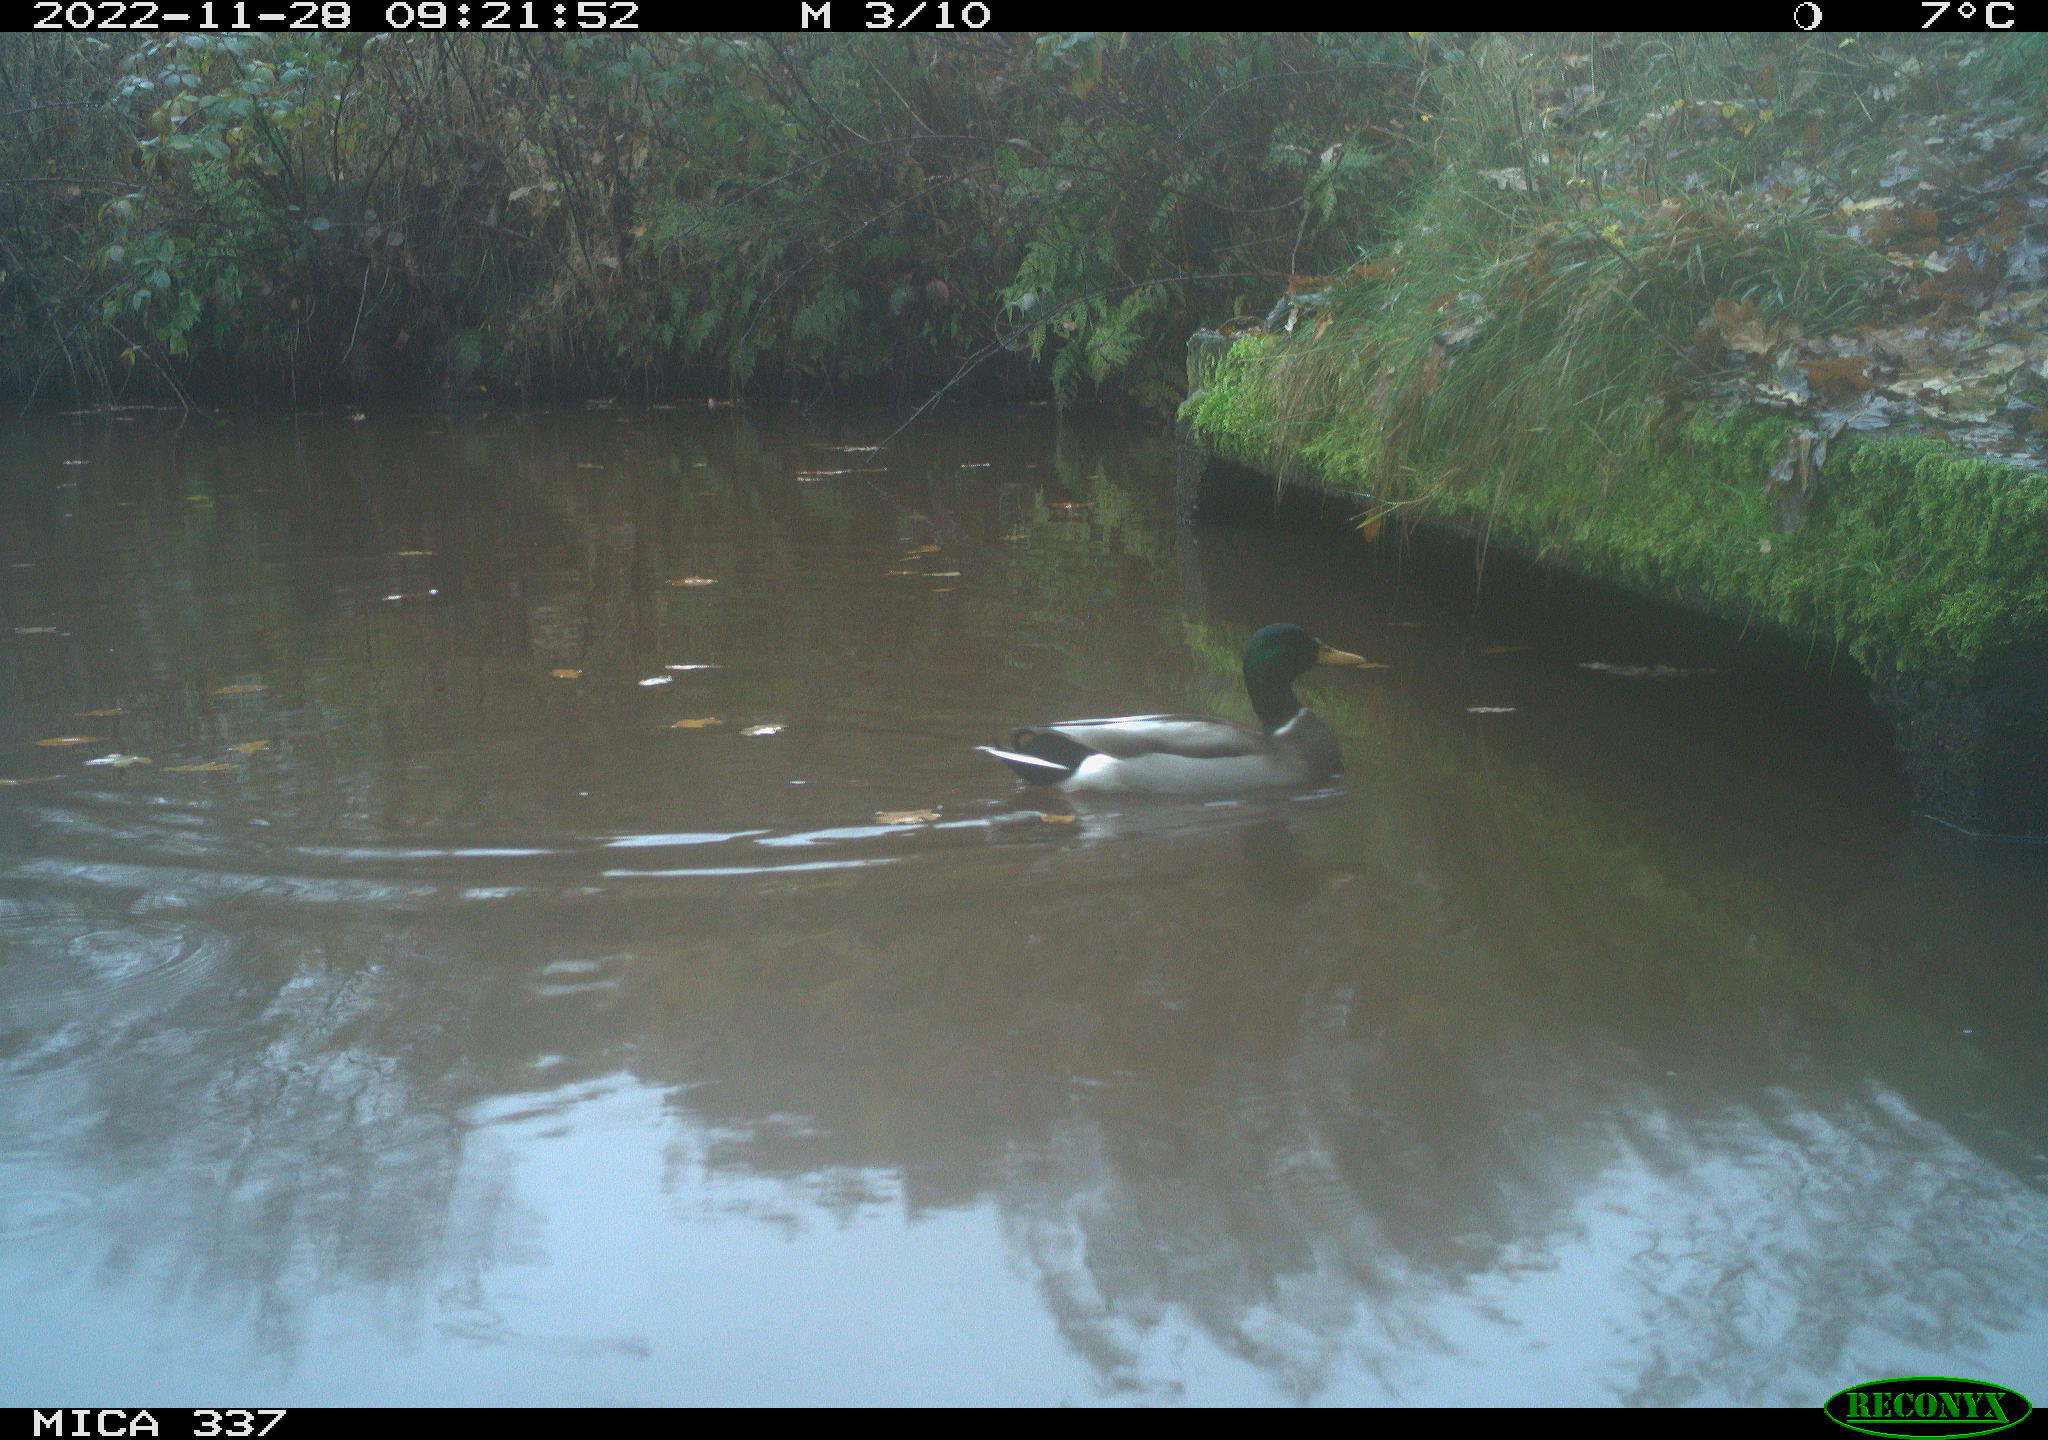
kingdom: Animalia
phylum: Chordata
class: Aves
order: Anseriformes
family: Anatidae
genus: Anas
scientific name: Anas
